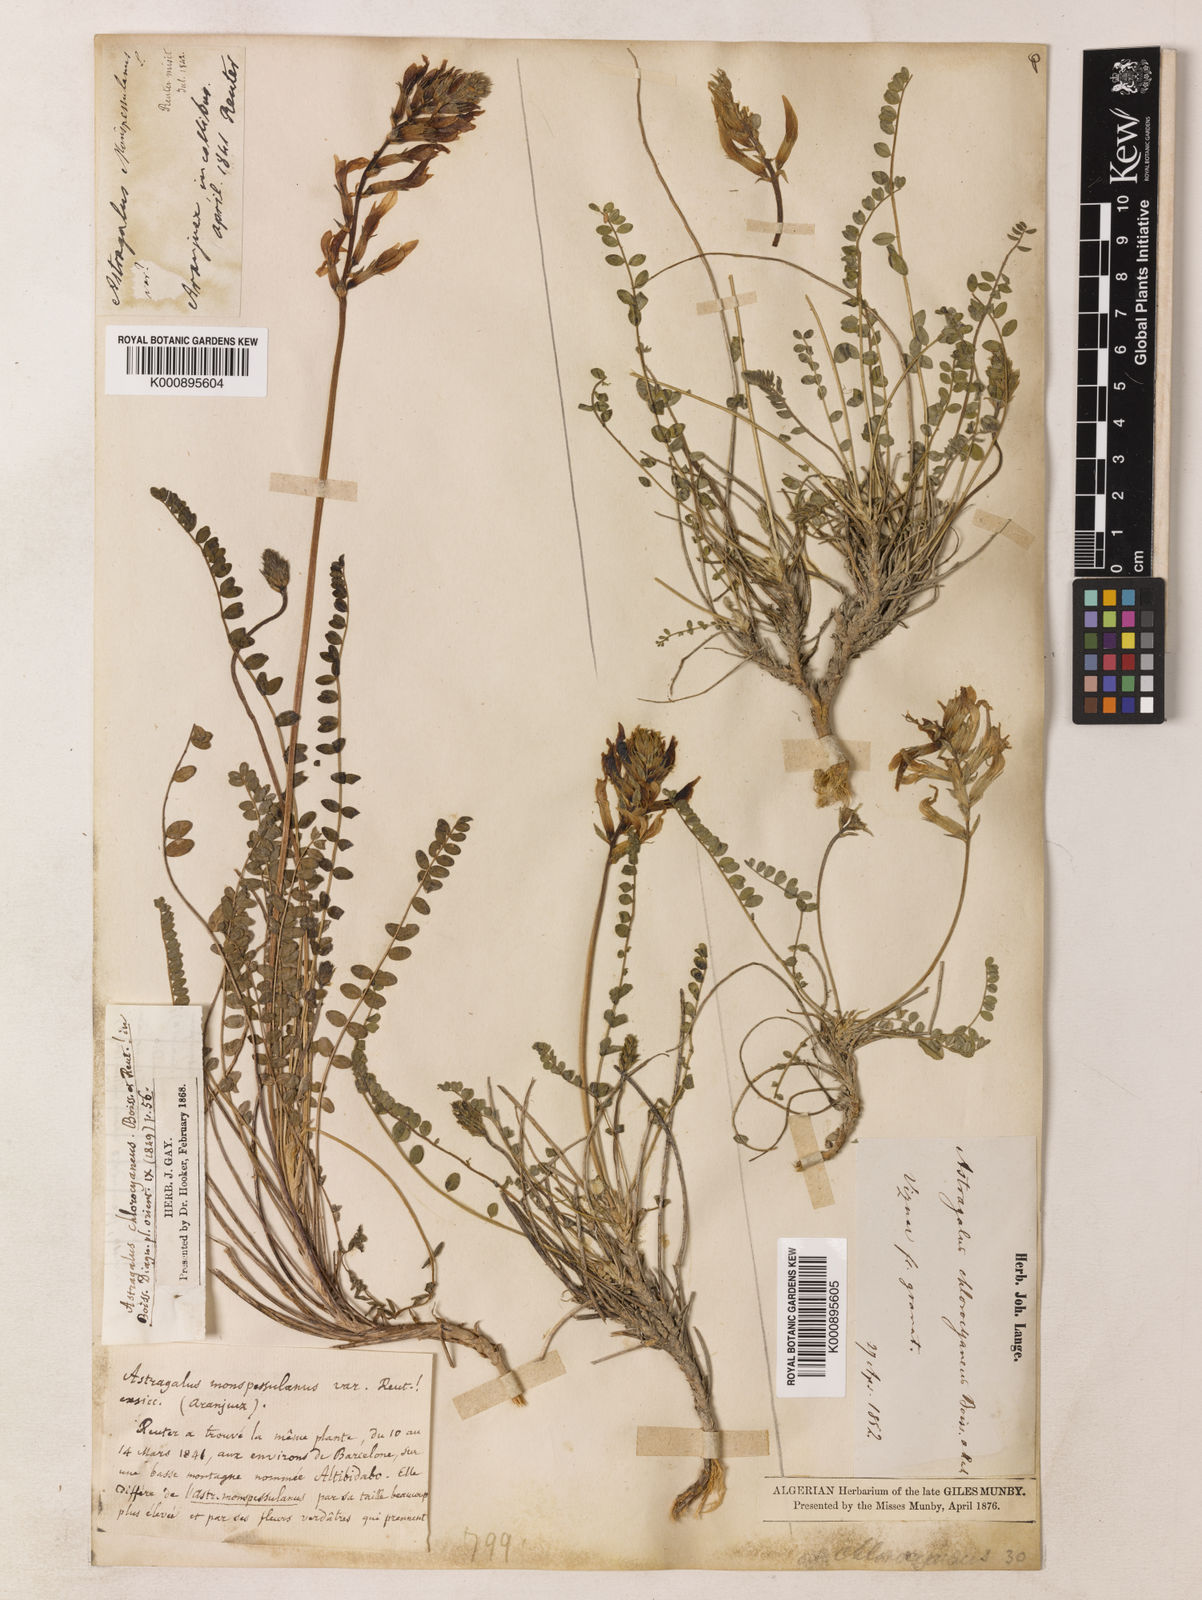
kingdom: Plantae
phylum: Tracheophyta
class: Magnoliopsida
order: Fabales
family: Fabaceae
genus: Astragalus
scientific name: Astragalus monspessulanus
